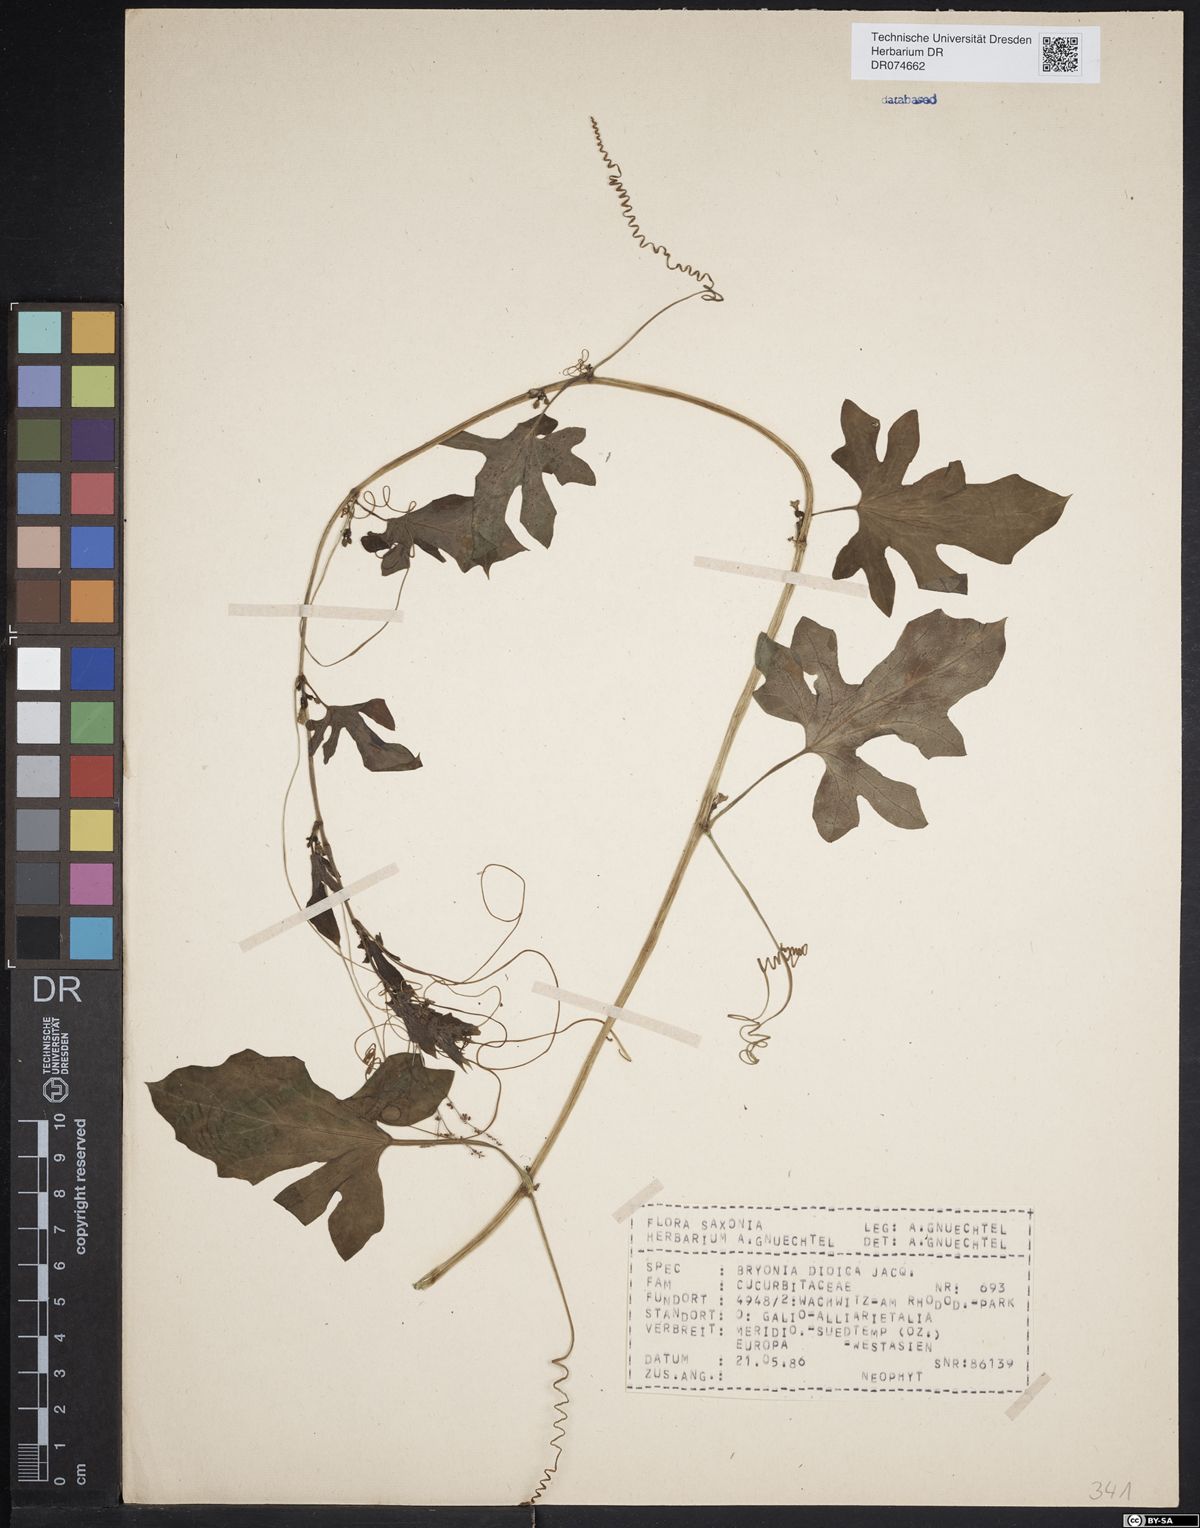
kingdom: Plantae
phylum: Tracheophyta
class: Magnoliopsida
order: Cucurbitales
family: Cucurbitaceae
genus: Bryonia
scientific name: Bryonia dioica
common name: White bryony
